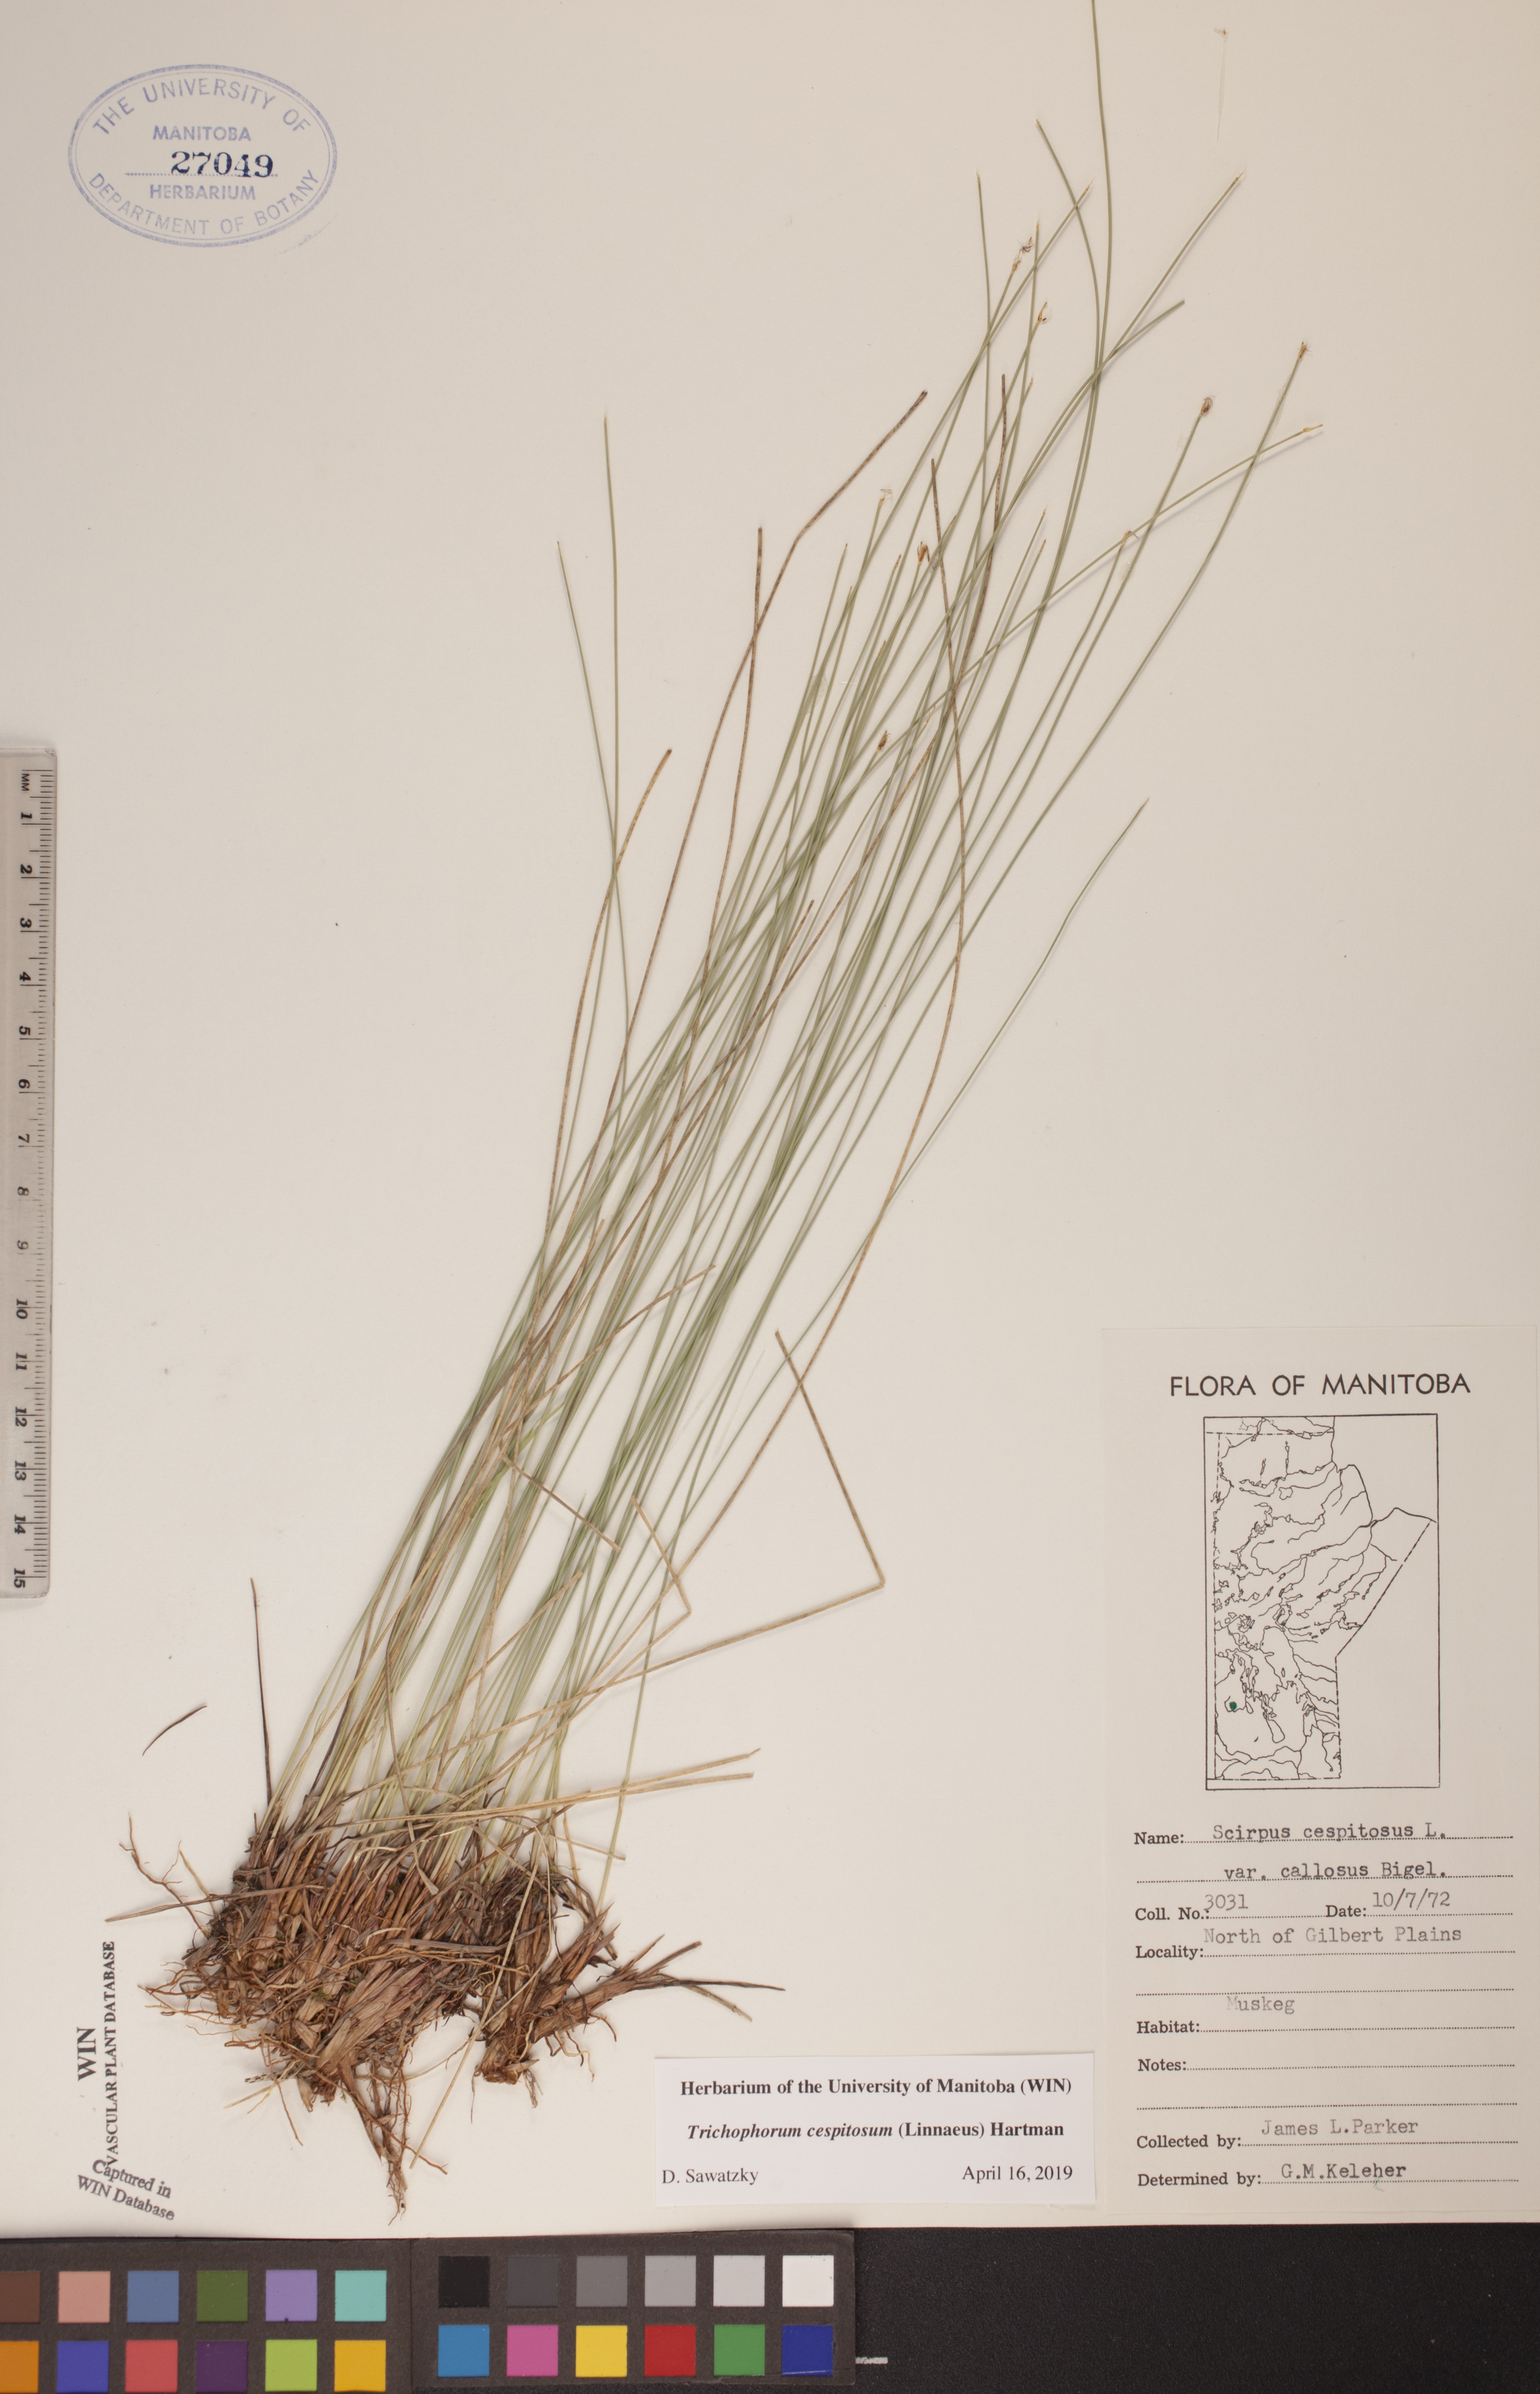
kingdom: Plantae
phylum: Tracheophyta
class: Liliopsida
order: Poales
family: Cyperaceae
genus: Trichophorum
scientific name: Trichophorum cespitosum
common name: Cespitose bulrush
